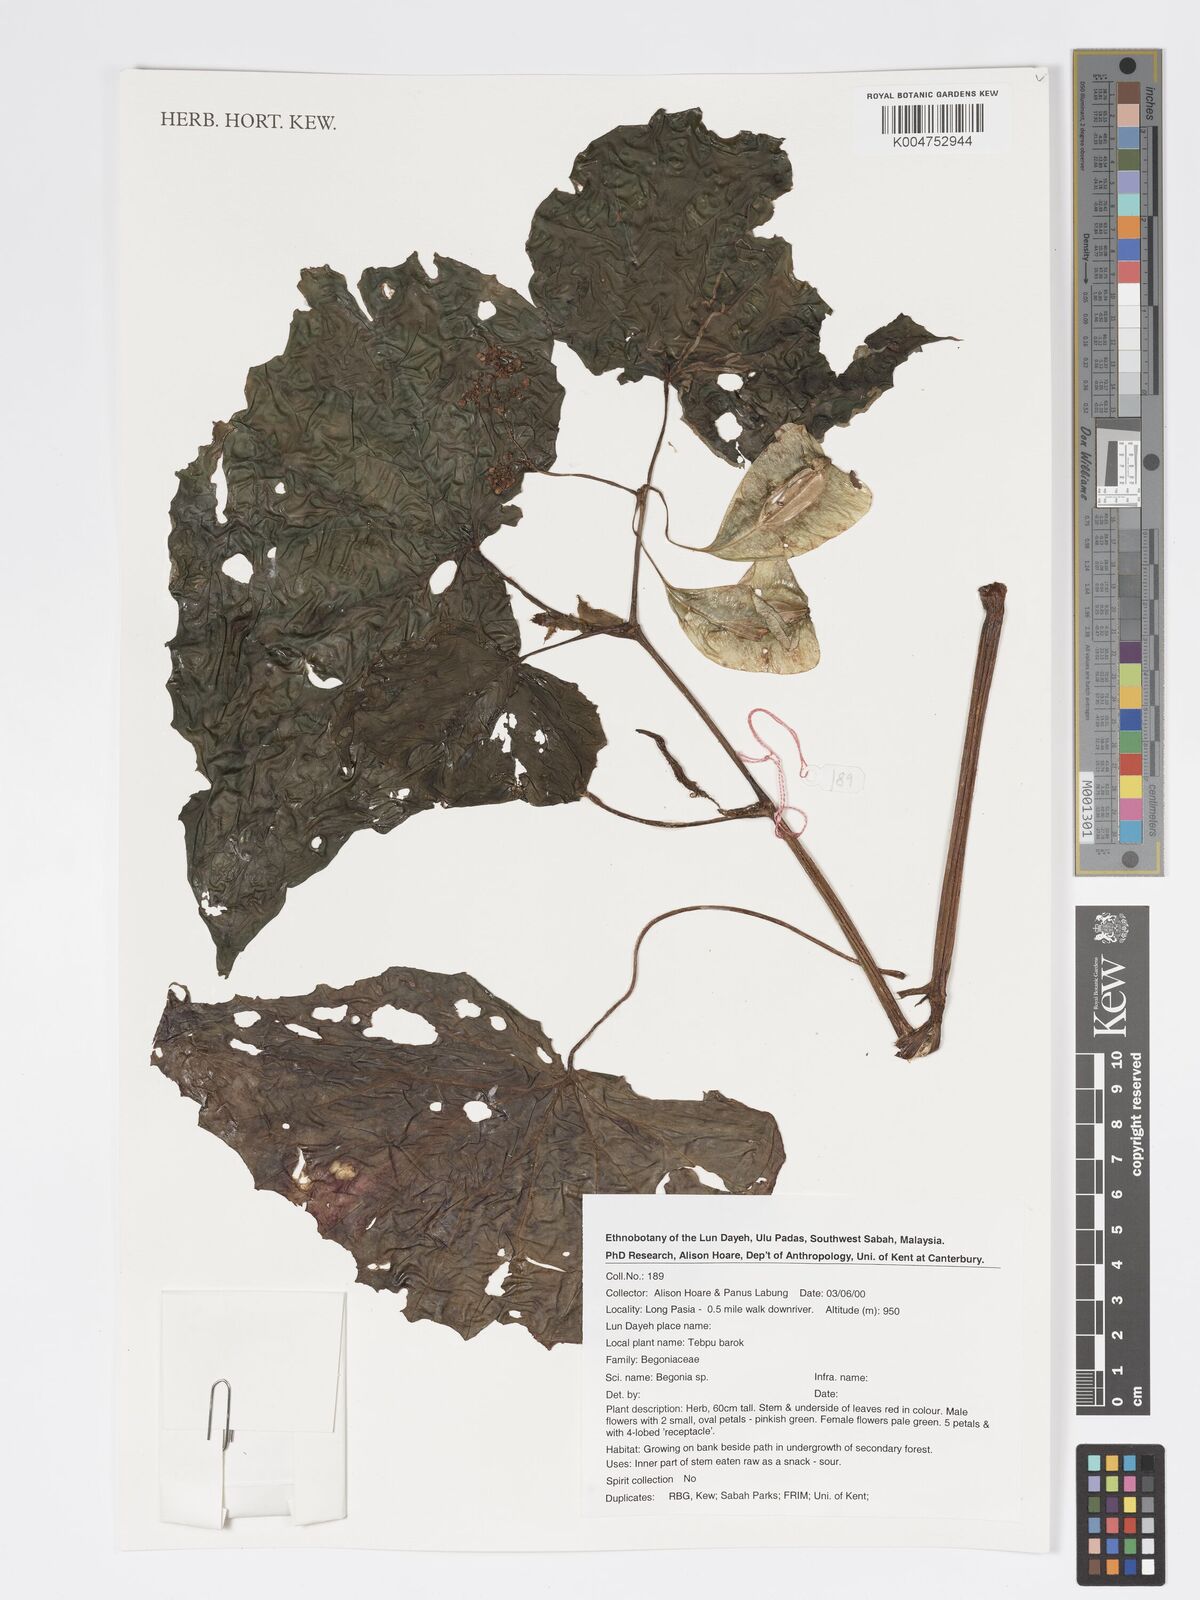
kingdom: Plantae
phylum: Tracheophyta
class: Magnoliopsida
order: Cucurbitales
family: Begoniaceae
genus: Begonia
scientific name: Begonia
